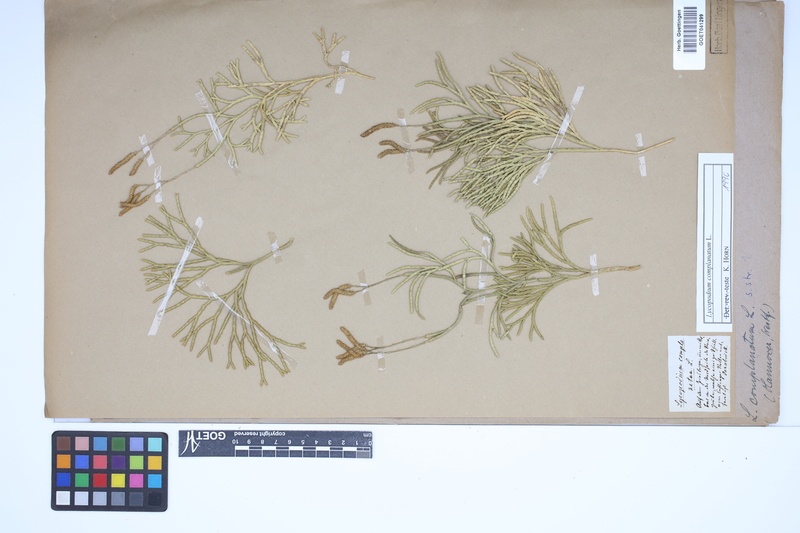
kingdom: Plantae
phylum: Tracheophyta
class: Lycopodiopsida
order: Lycopodiales
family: Lycopodiaceae
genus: Diphasiastrum
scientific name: Diphasiastrum complanatum
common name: Northern running-pine
